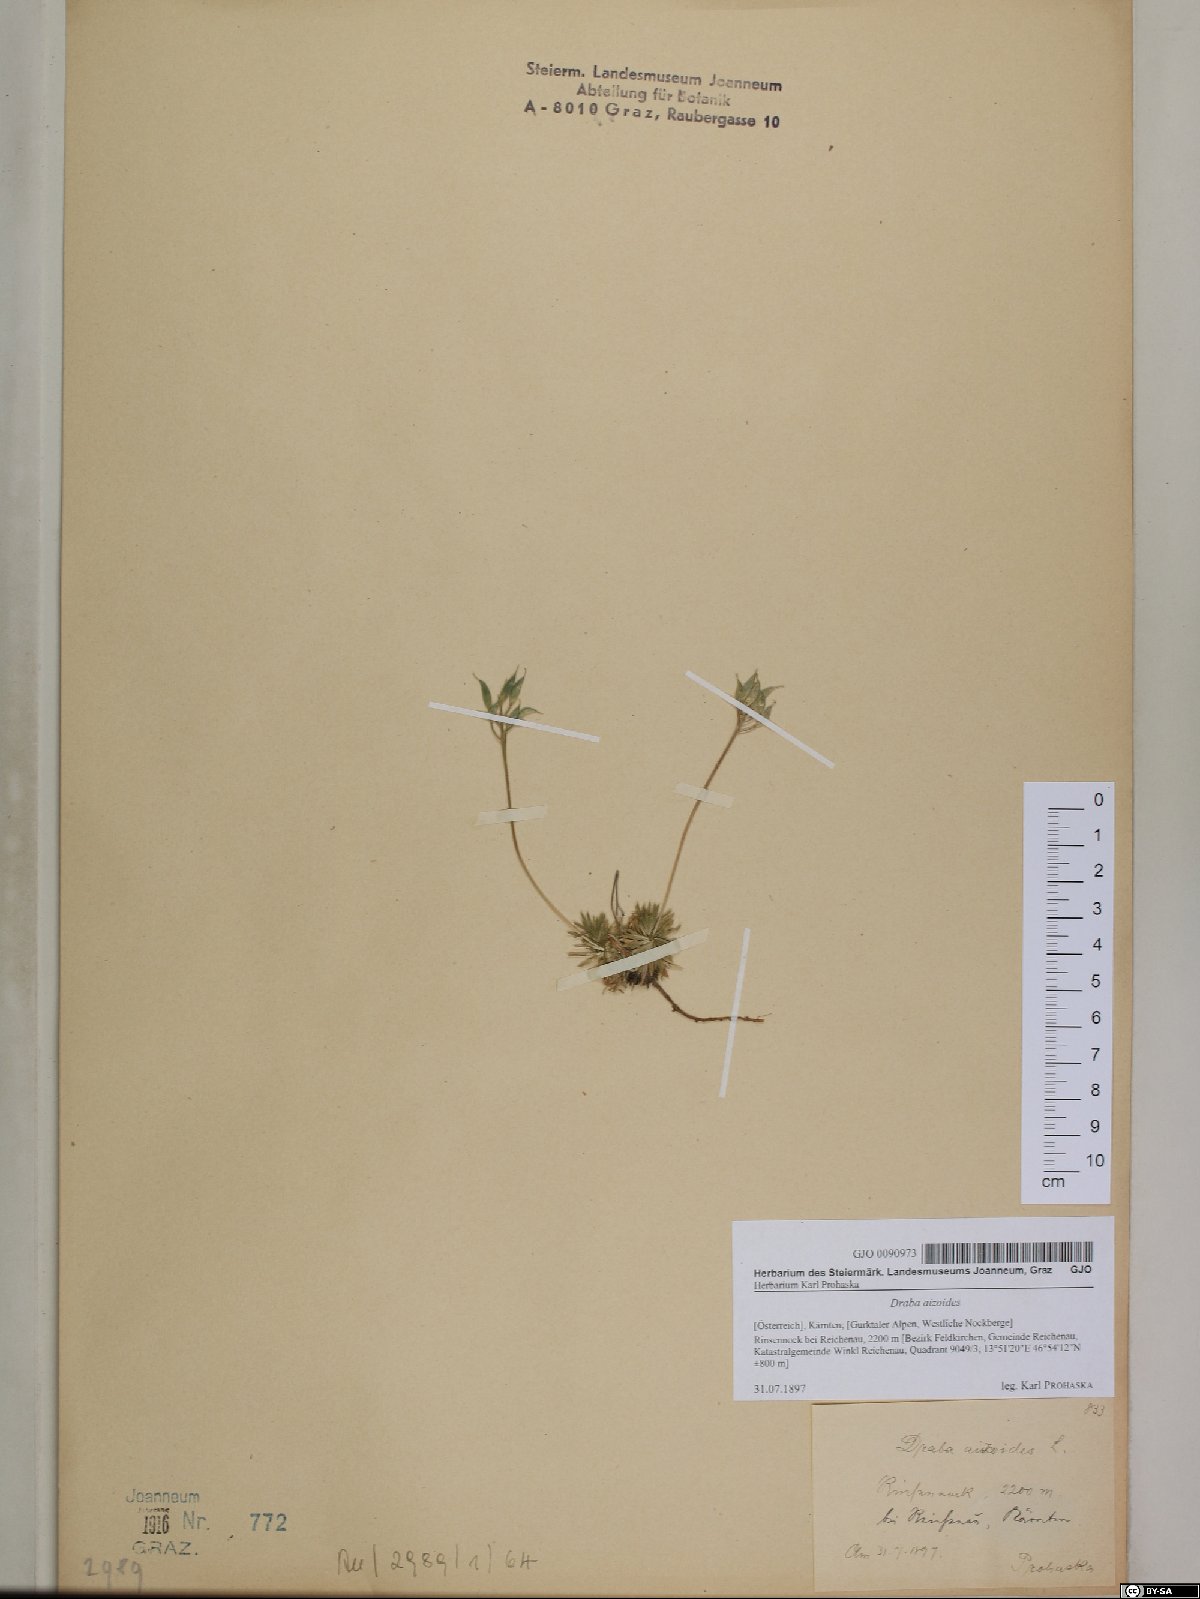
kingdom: Plantae
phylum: Tracheophyta
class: Magnoliopsida
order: Brassicales
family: Brassicaceae
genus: Draba
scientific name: Draba aizoides
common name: Yellow whitlowgrass
